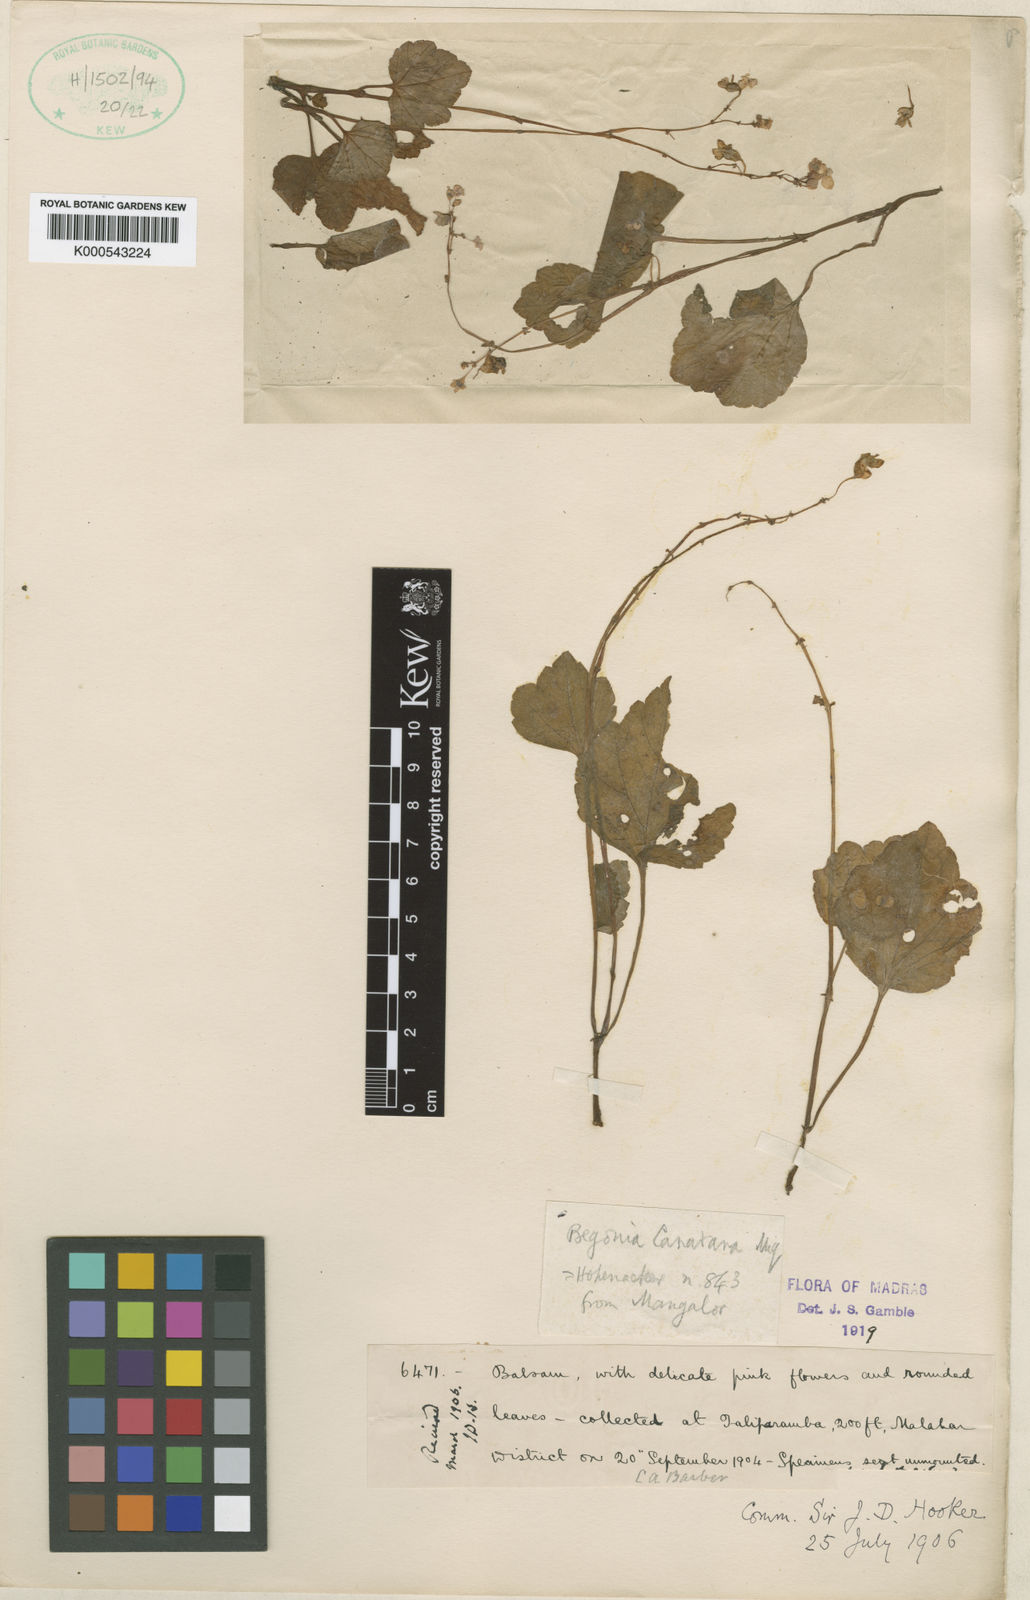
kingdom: Plantae
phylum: Tracheophyta
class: Magnoliopsida
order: Cucurbitales
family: Begoniaceae
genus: Begonia
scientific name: Begonia canarana
